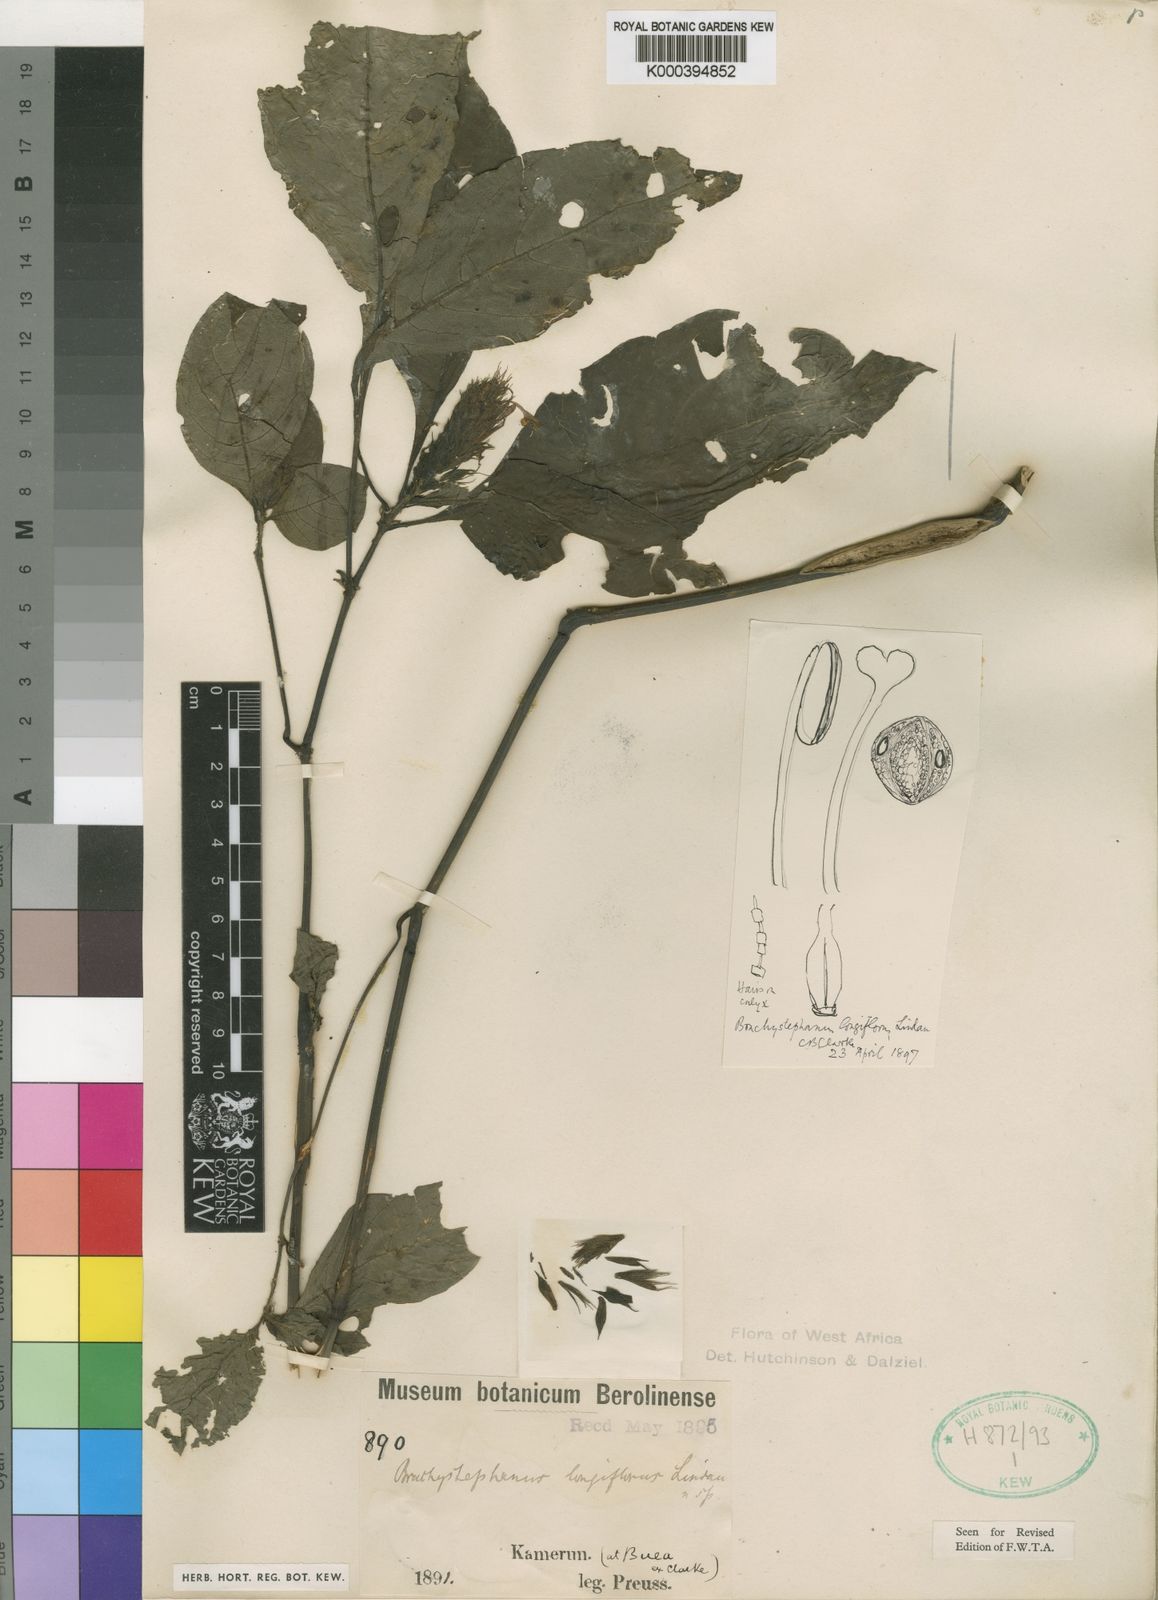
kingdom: Plantae
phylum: Tracheophyta
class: Magnoliopsida
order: Lamiales
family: Acanthaceae
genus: Brachystephanus
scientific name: Brachystephanus longiflorus
